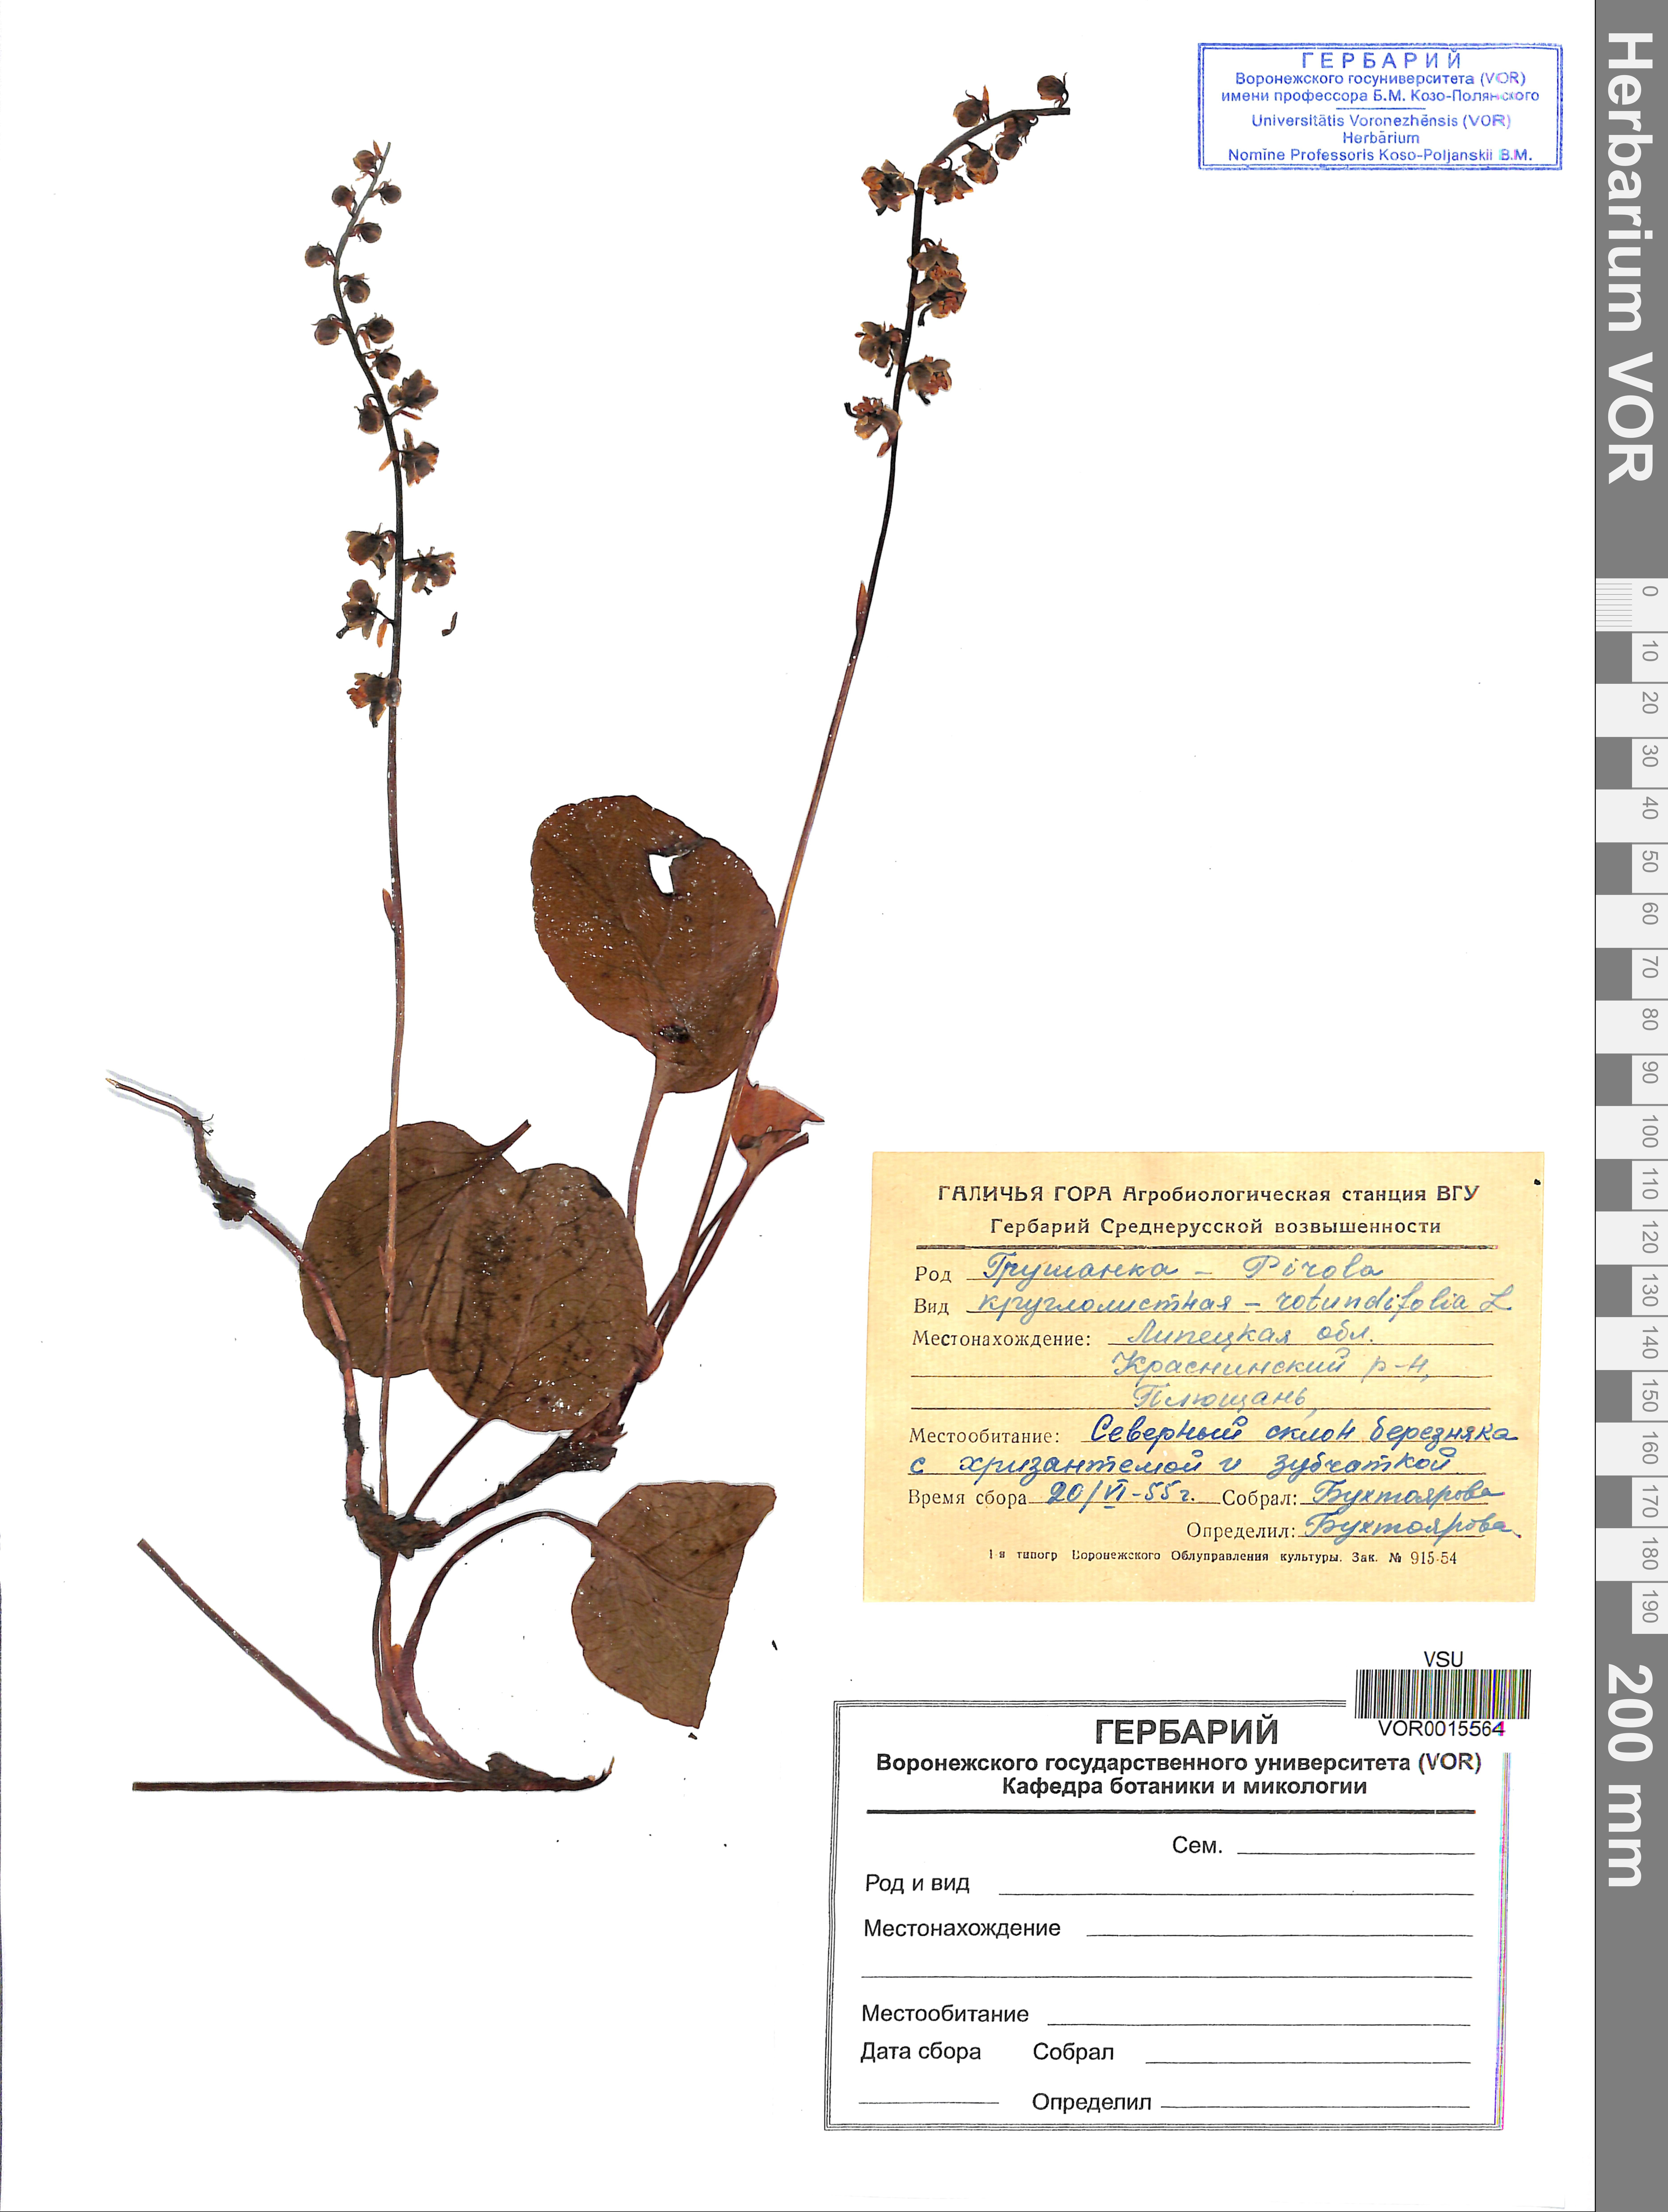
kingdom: Plantae
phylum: Tracheophyta
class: Magnoliopsida
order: Ericales
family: Ericaceae
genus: Pyrola
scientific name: Pyrola rotundifolia
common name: Round-leaved wintergreen
